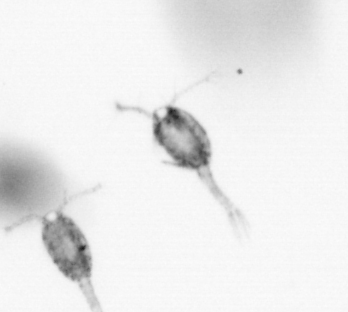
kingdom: Animalia
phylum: Arthropoda
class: Copepoda
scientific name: Copepoda
